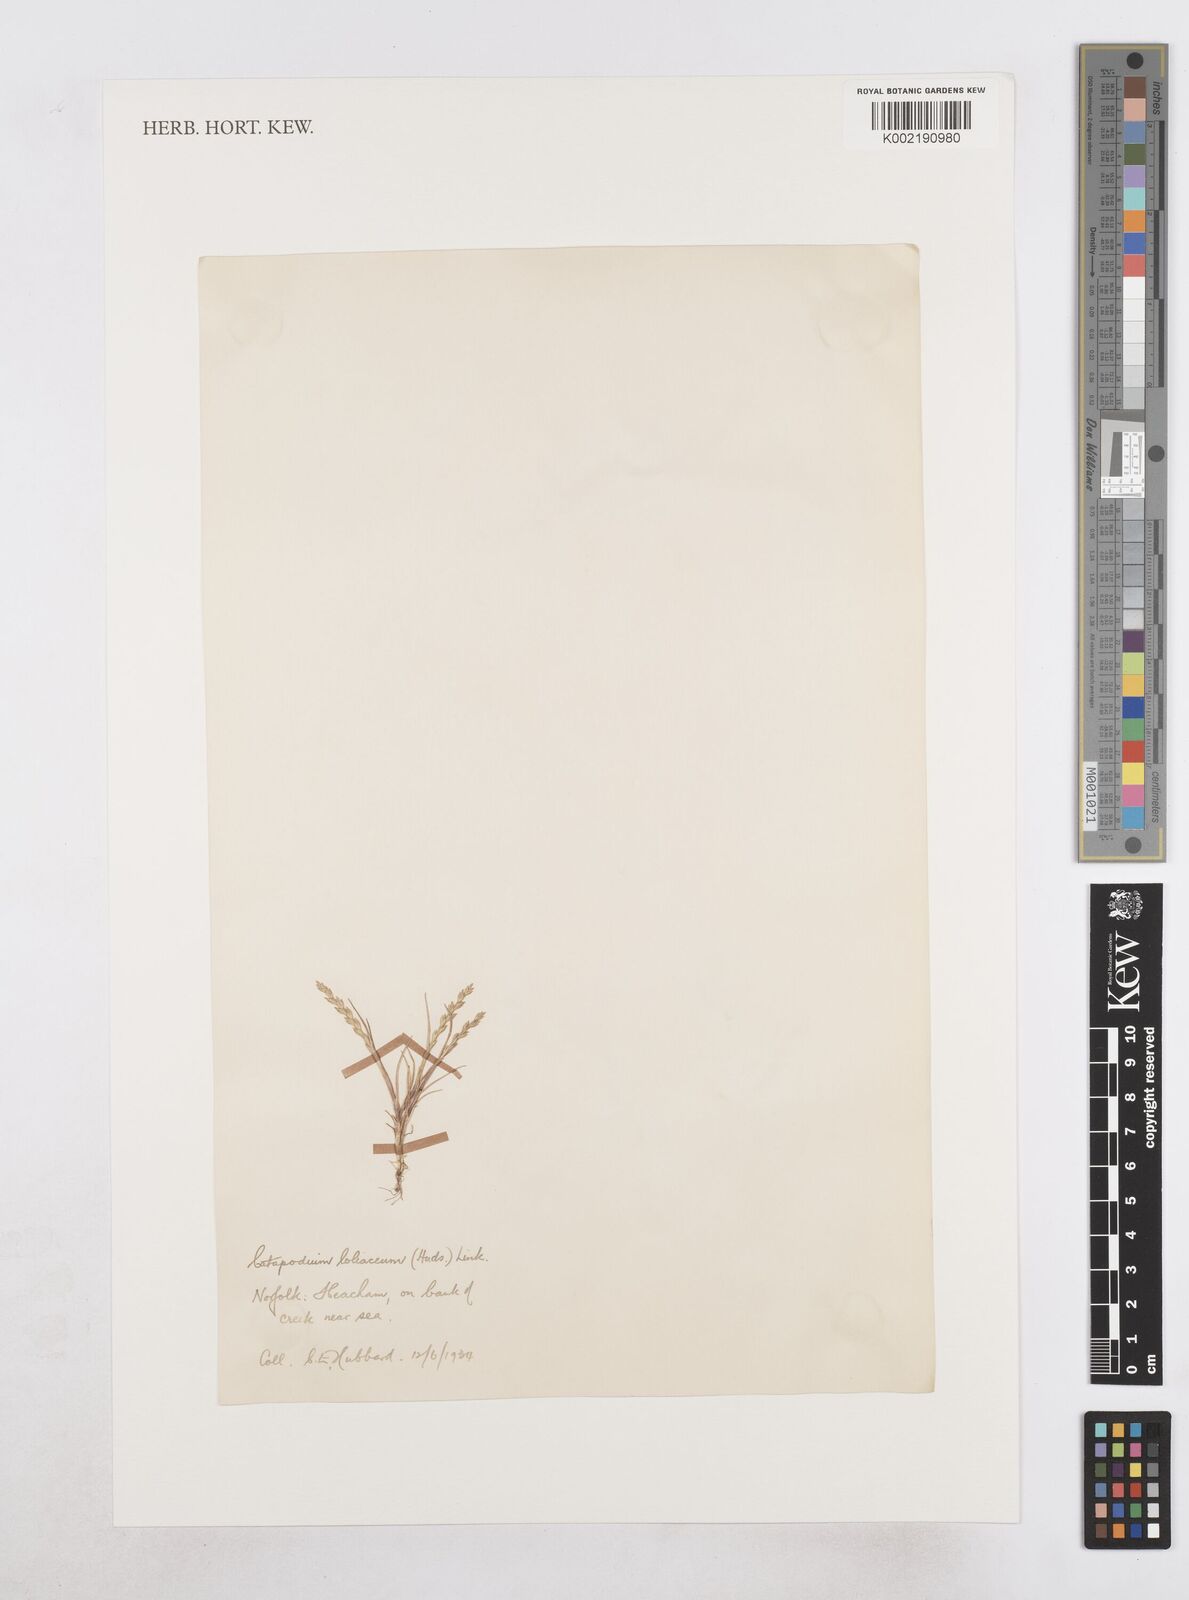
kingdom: Plantae
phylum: Tracheophyta
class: Liliopsida
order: Poales
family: Poaceae
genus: Catapodium
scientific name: Catapodium marinum
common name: Sea fern-grass
